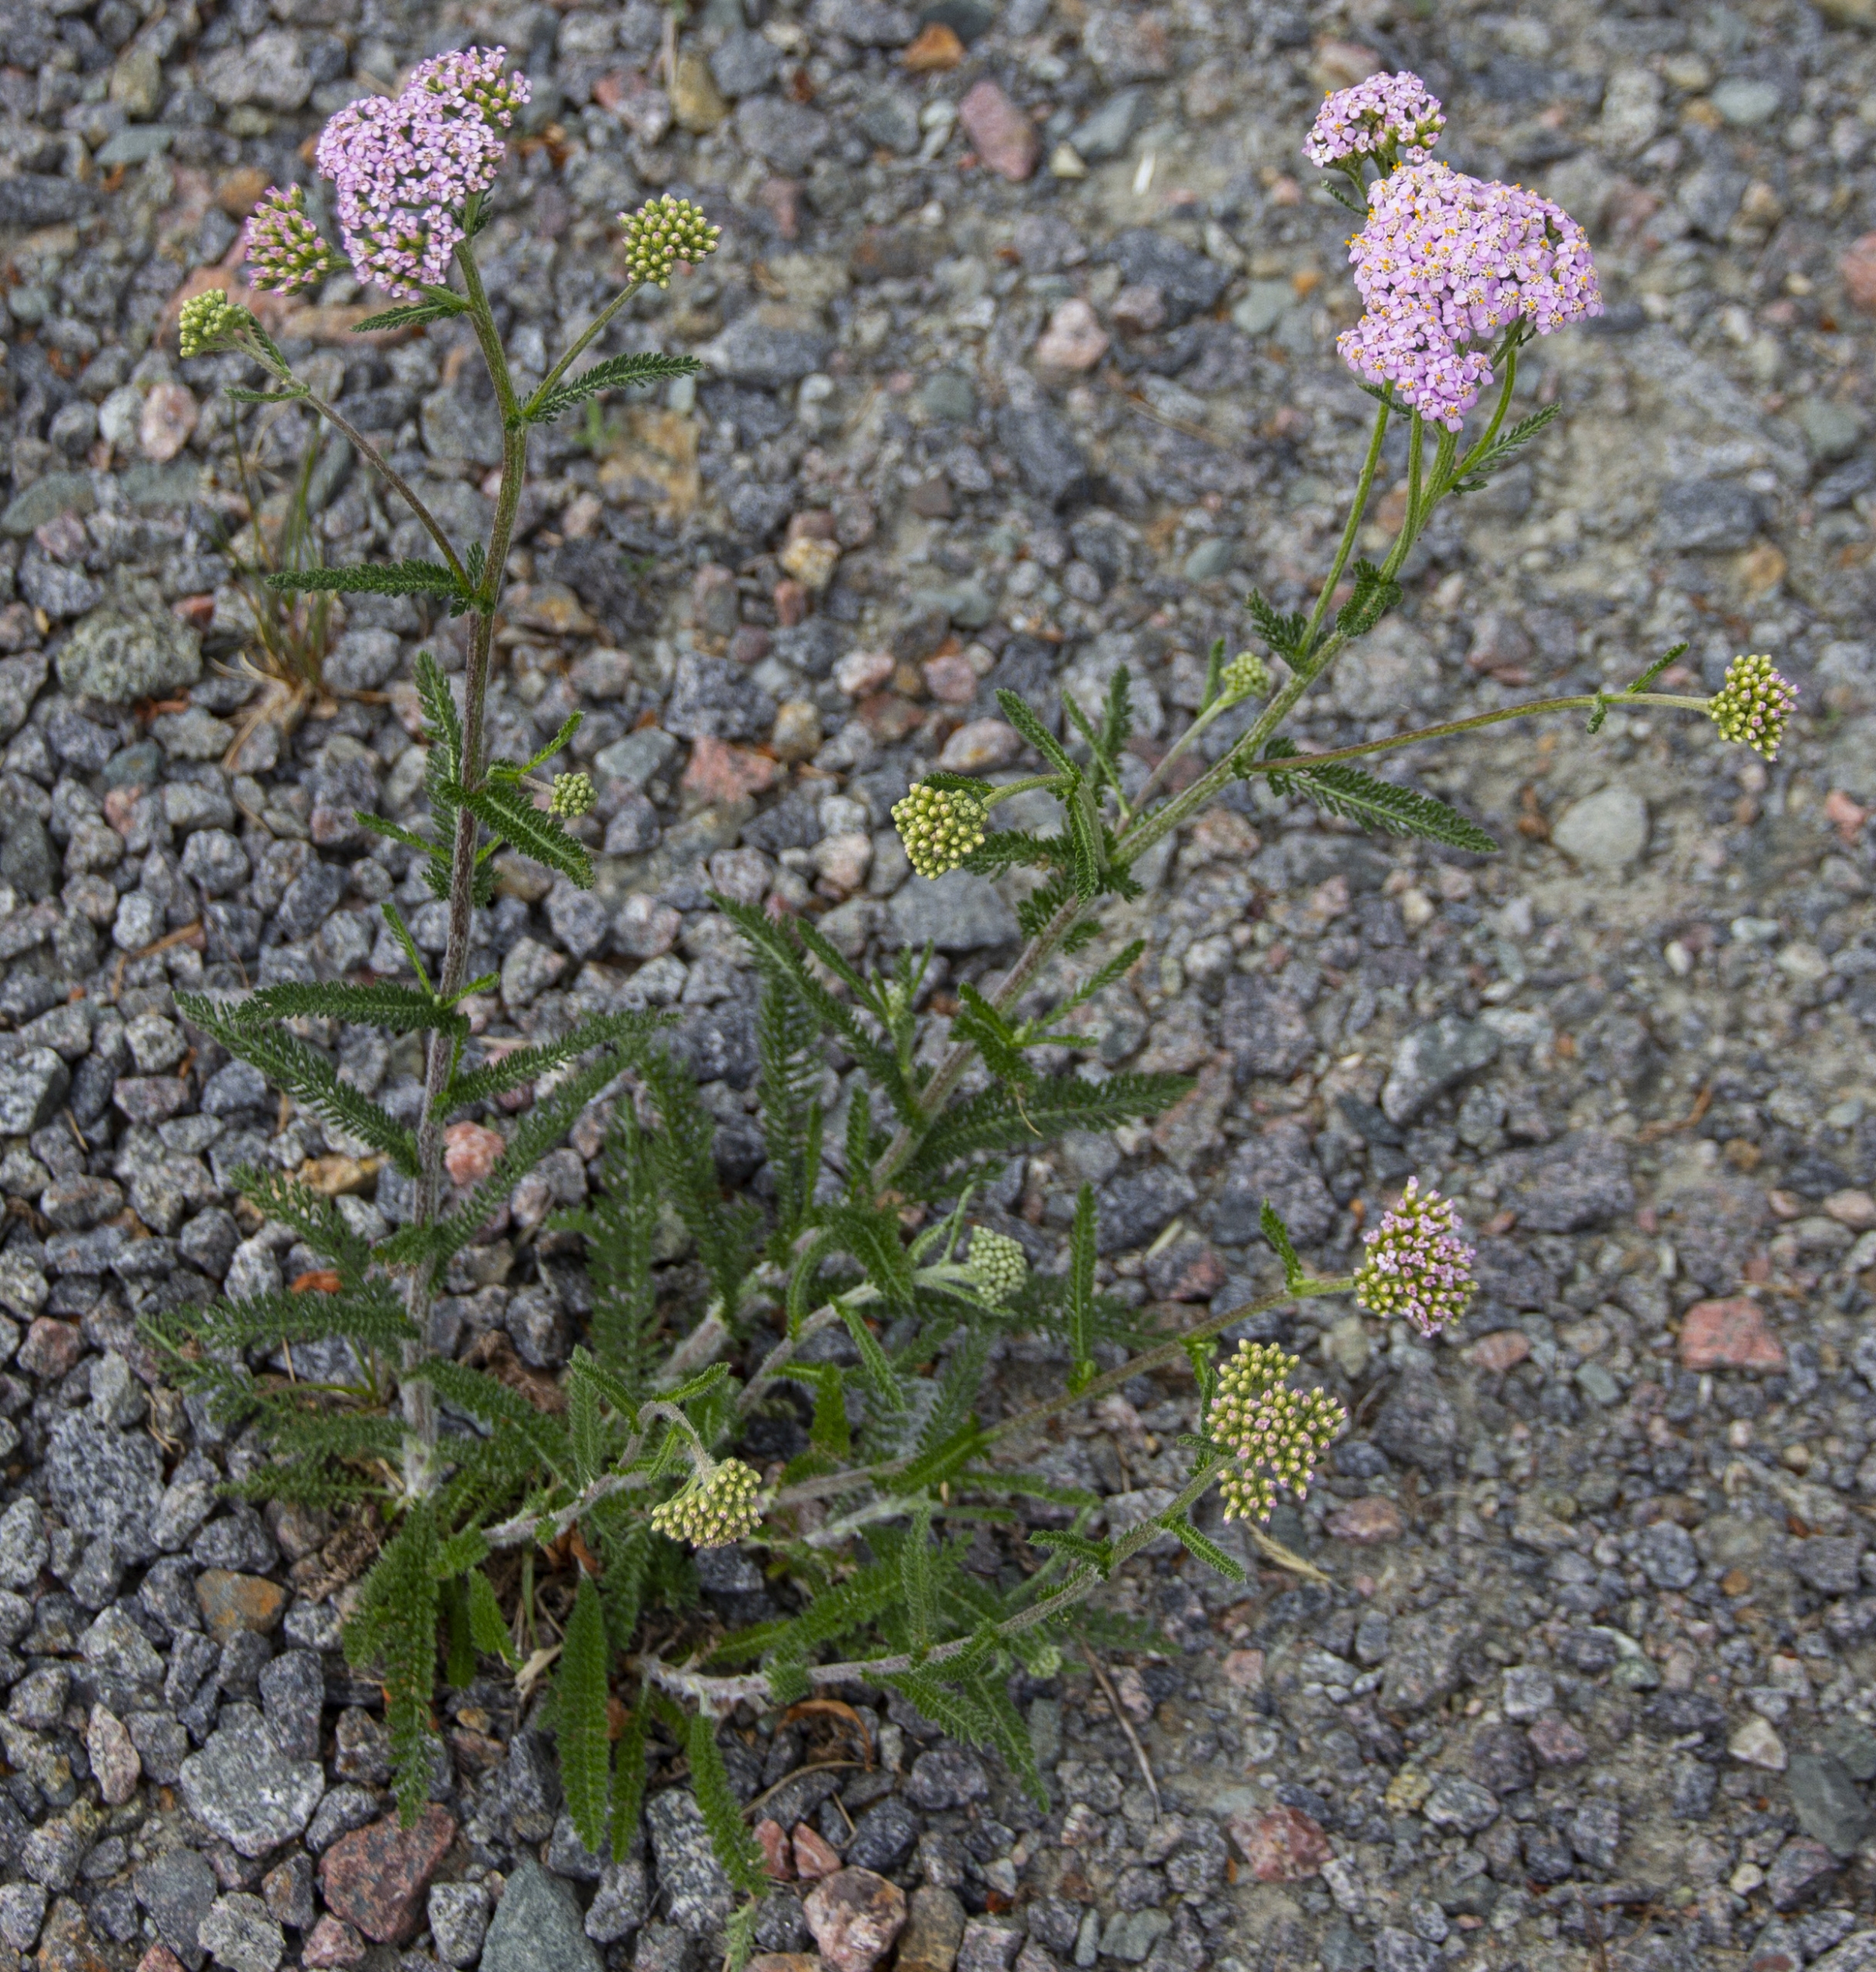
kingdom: Plantae
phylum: Tracheophyta
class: Magnoliopsida
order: Asterales
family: Asteraceae
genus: Achillea
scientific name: Achillea millefolium
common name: Almindelig røllike
